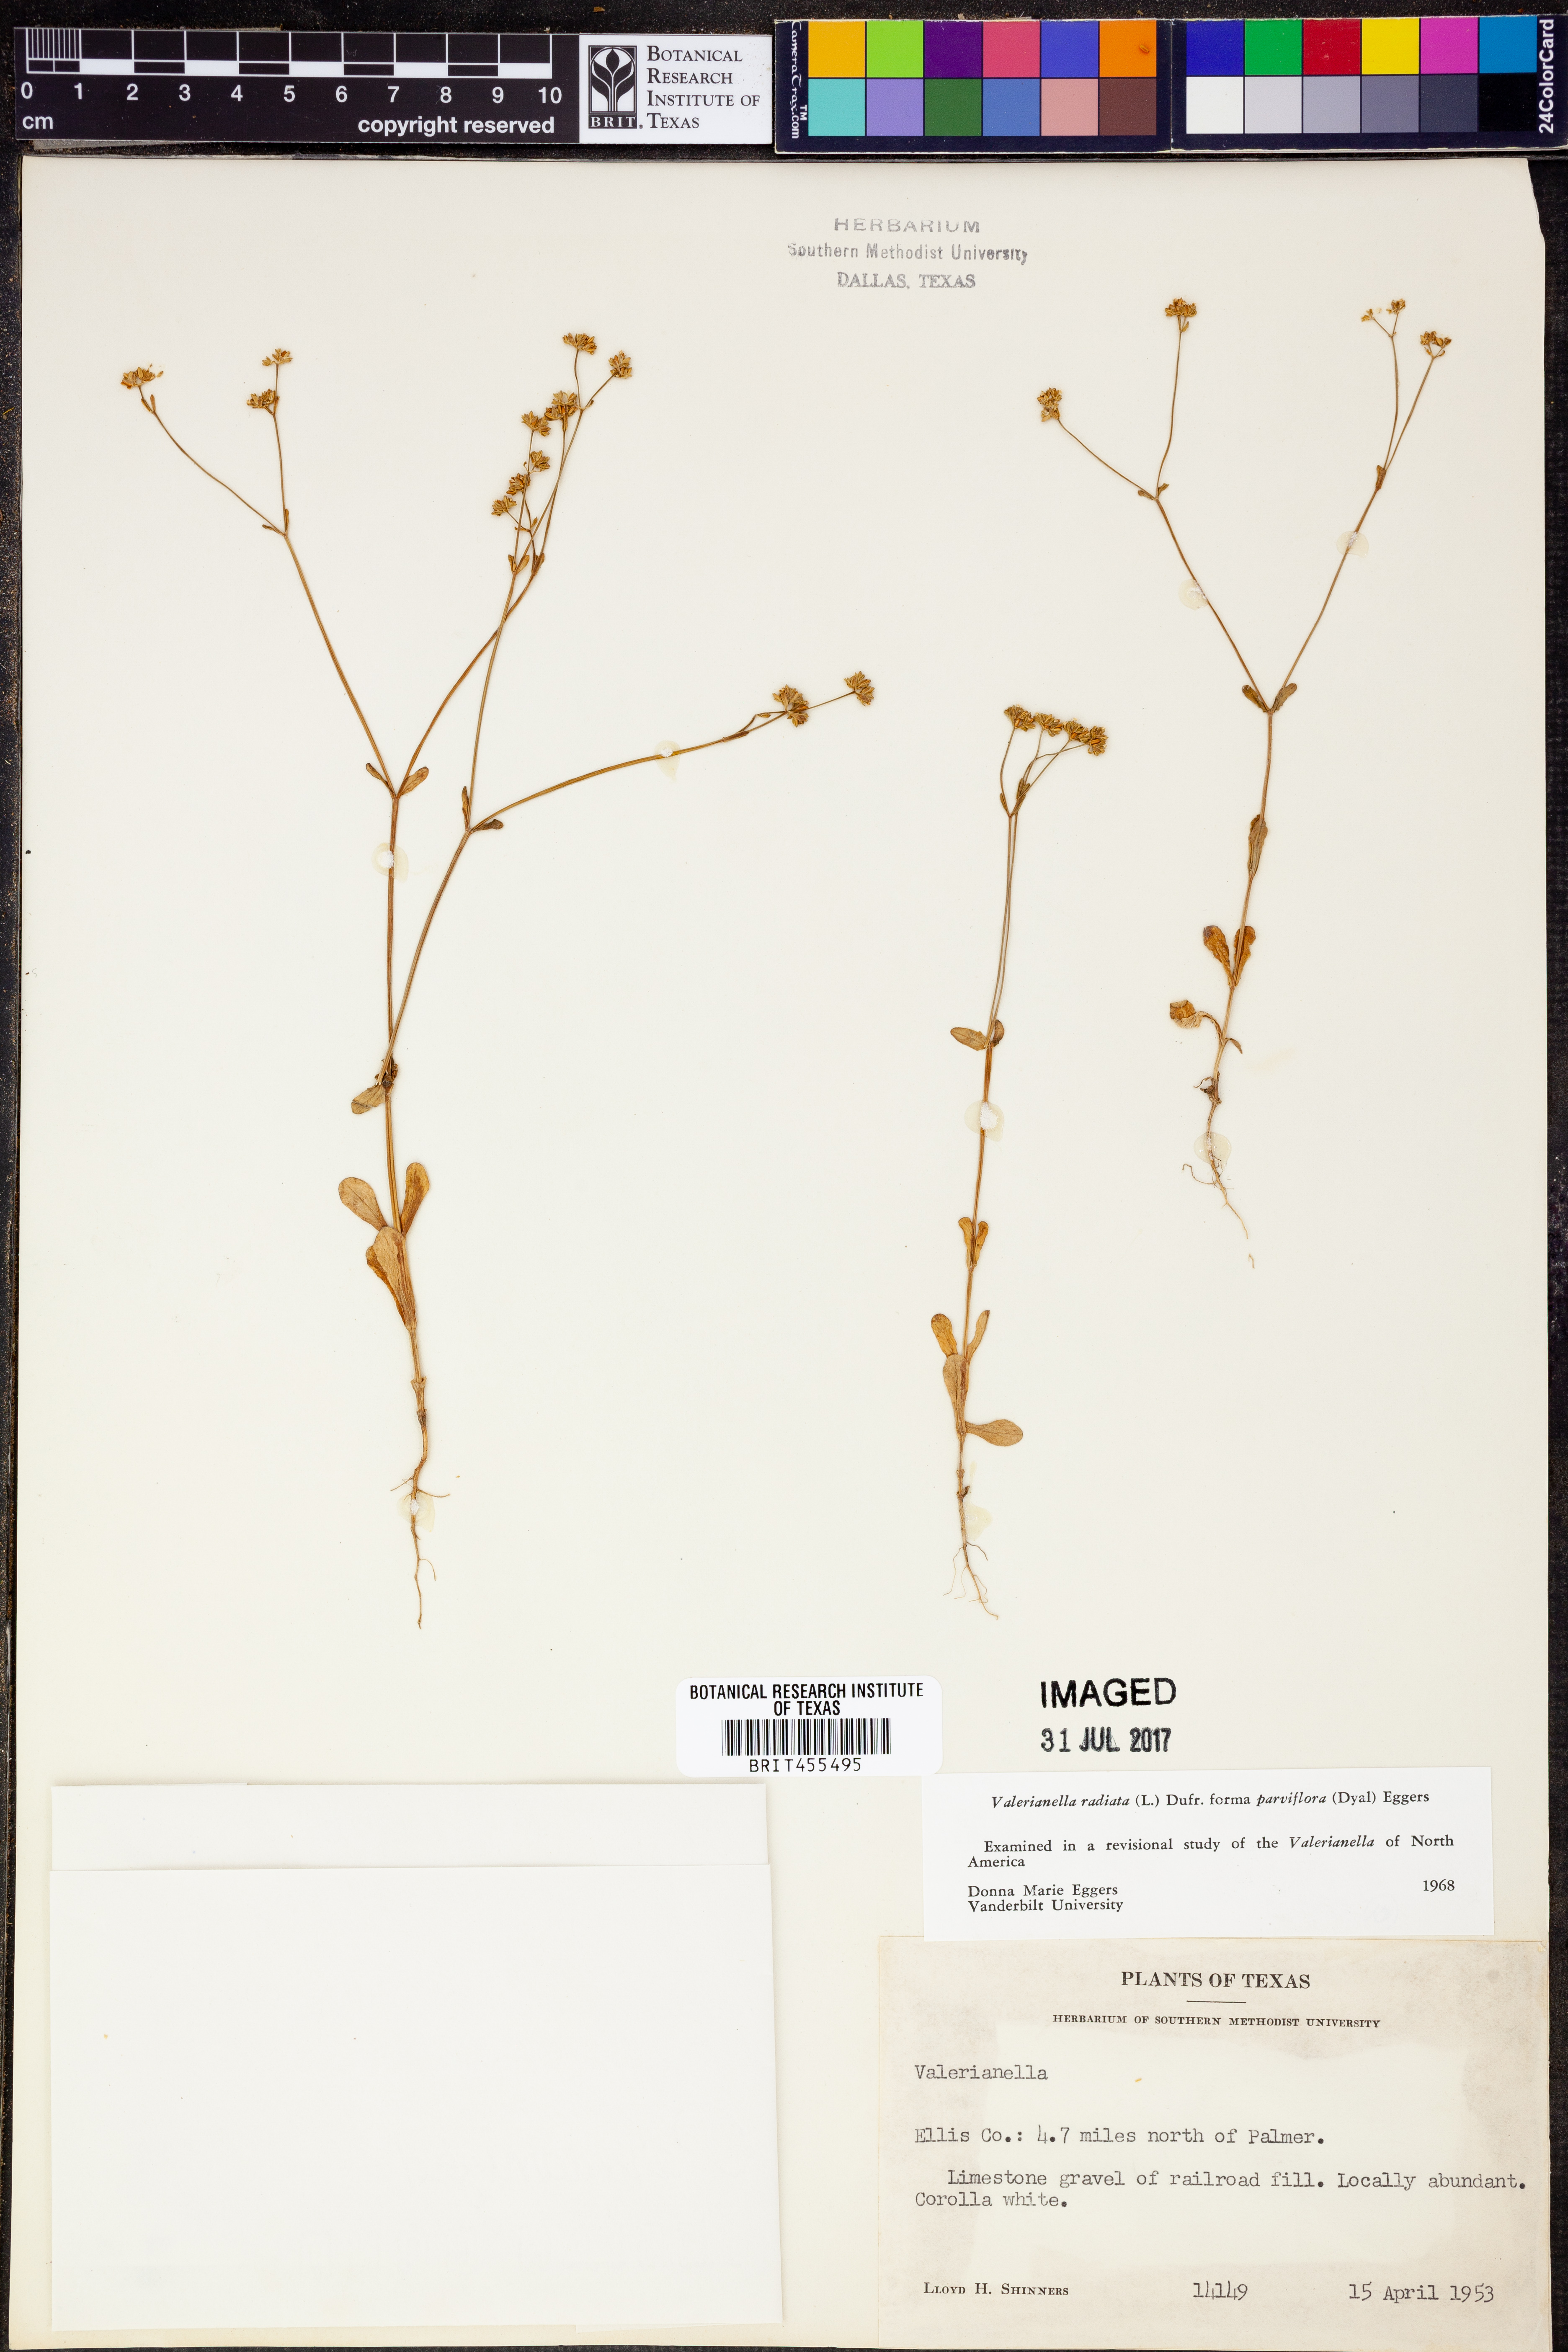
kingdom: Plantae
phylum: Tracheophyta
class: Magnoliopsida
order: Dipsacales
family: Caprifoliaceae
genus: Valerianella
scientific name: Valerianella radiata
